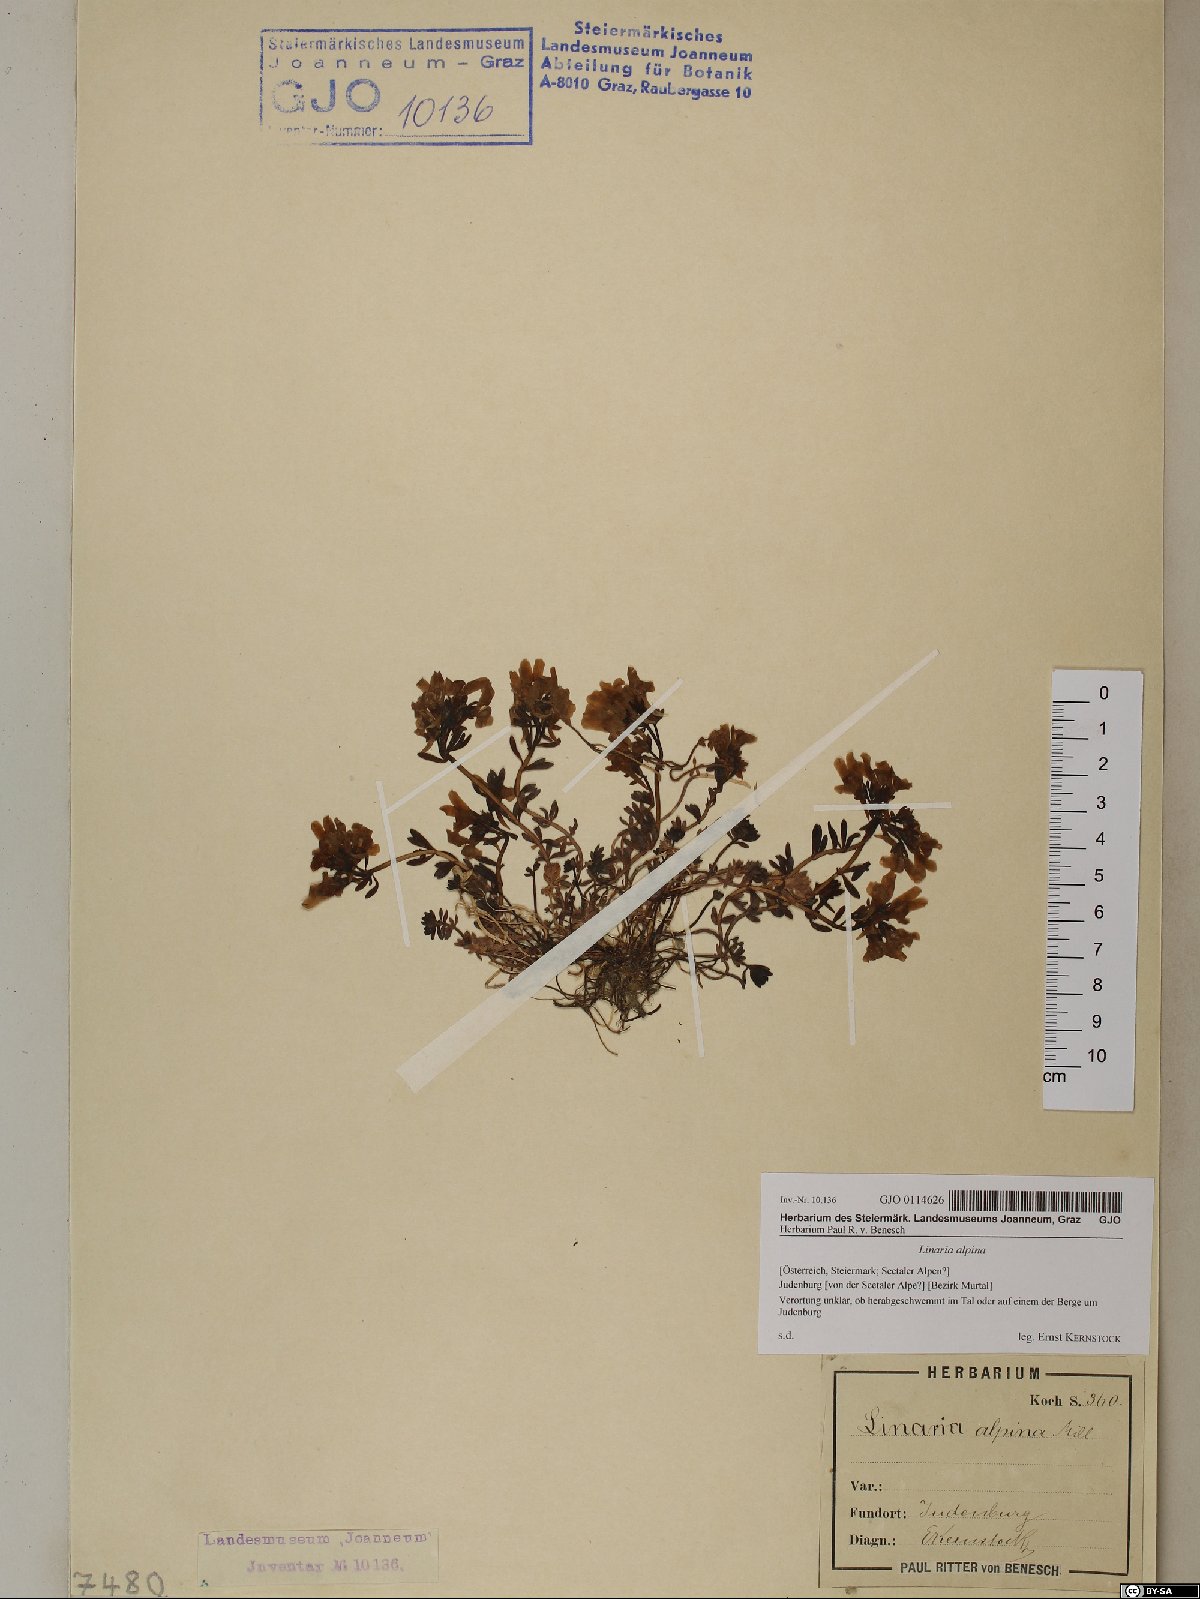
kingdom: Plantae
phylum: Tracheophyta
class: Magnoliopsida
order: Lamiales
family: Plantaginaceae
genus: Linaria
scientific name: Linaria alpina
